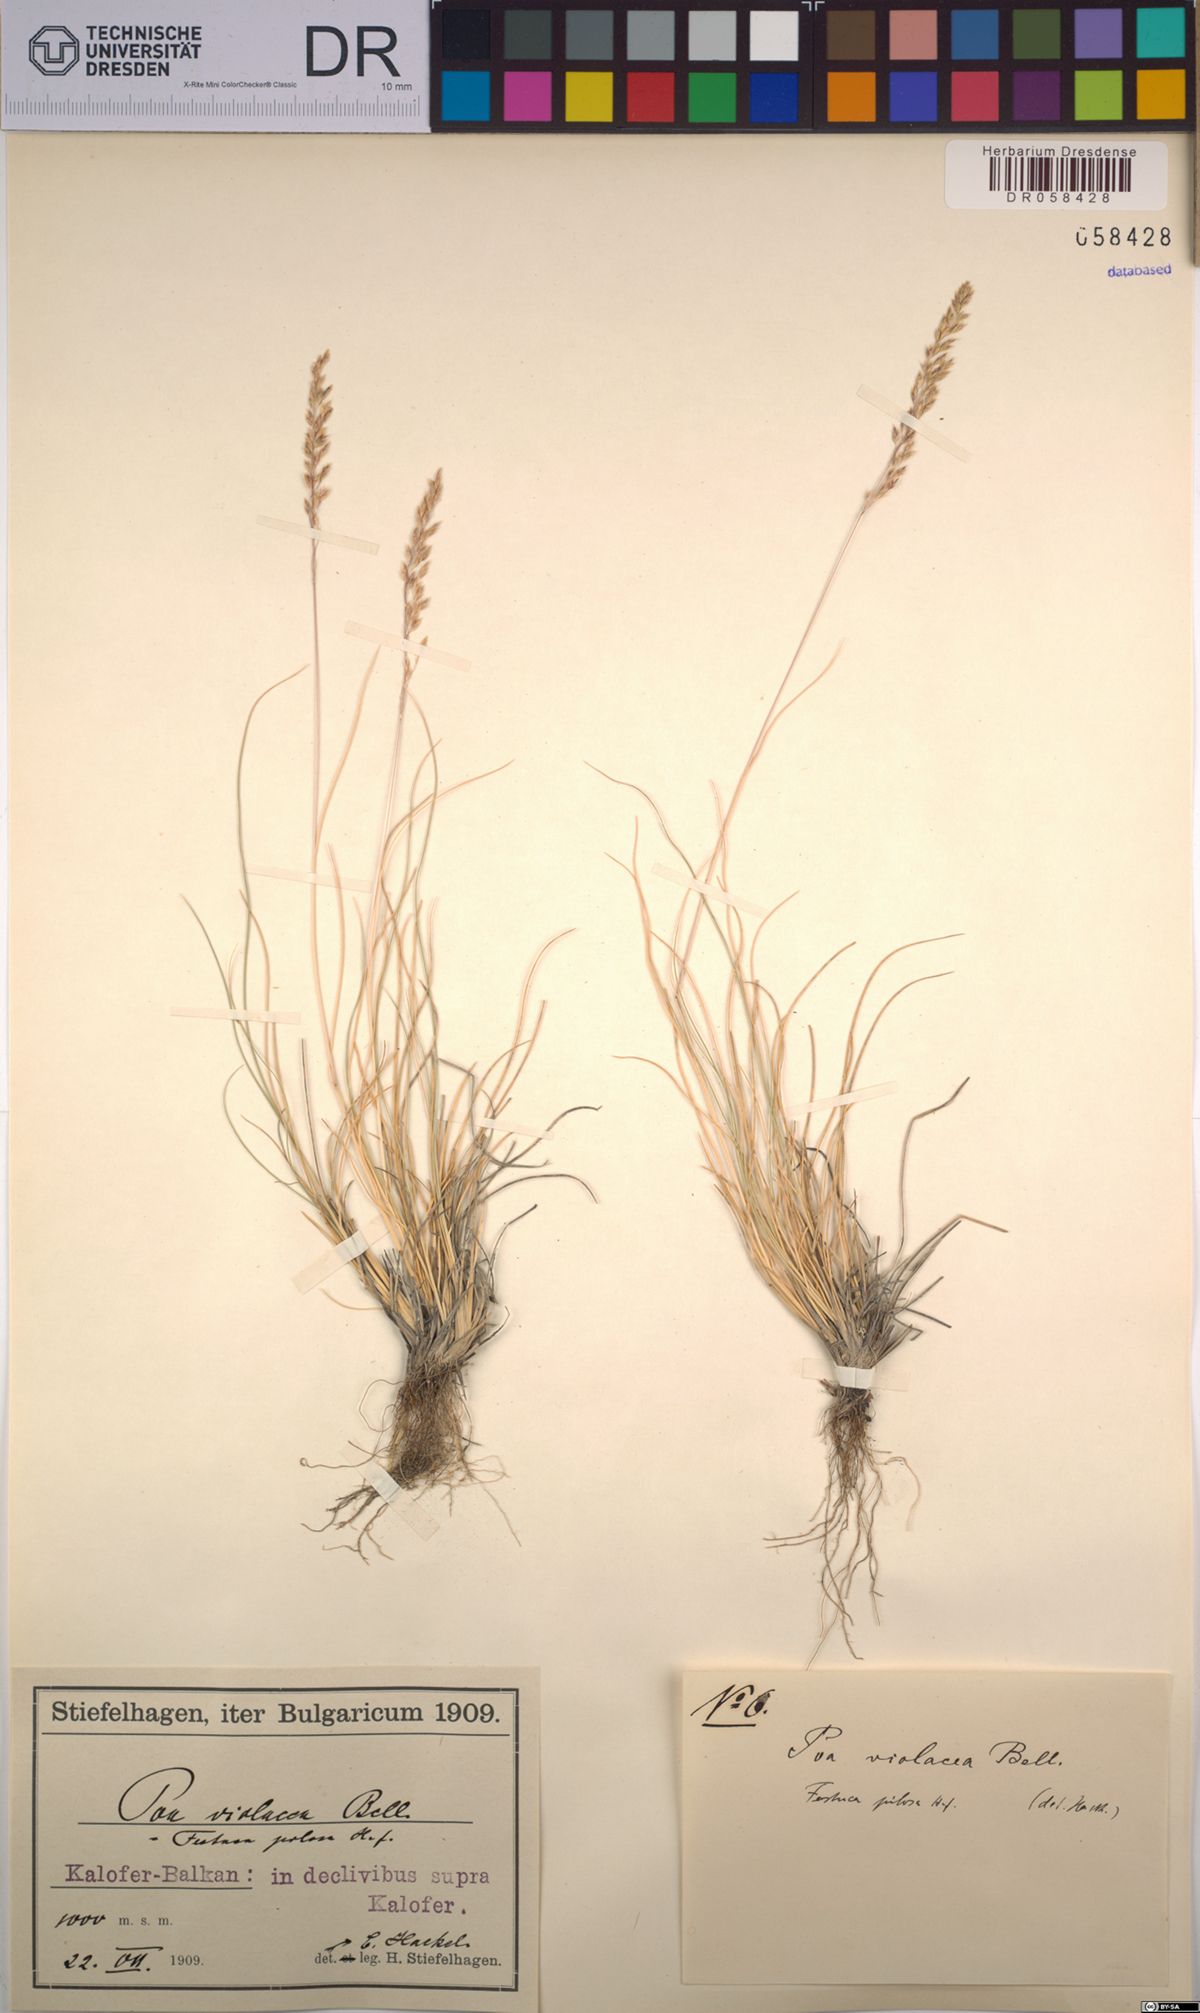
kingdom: Plantae
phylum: Tracheophyta
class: Liliopsida
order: Poales
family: Poaceae
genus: Bellardiochloa
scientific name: Bellardiochloa variegata
